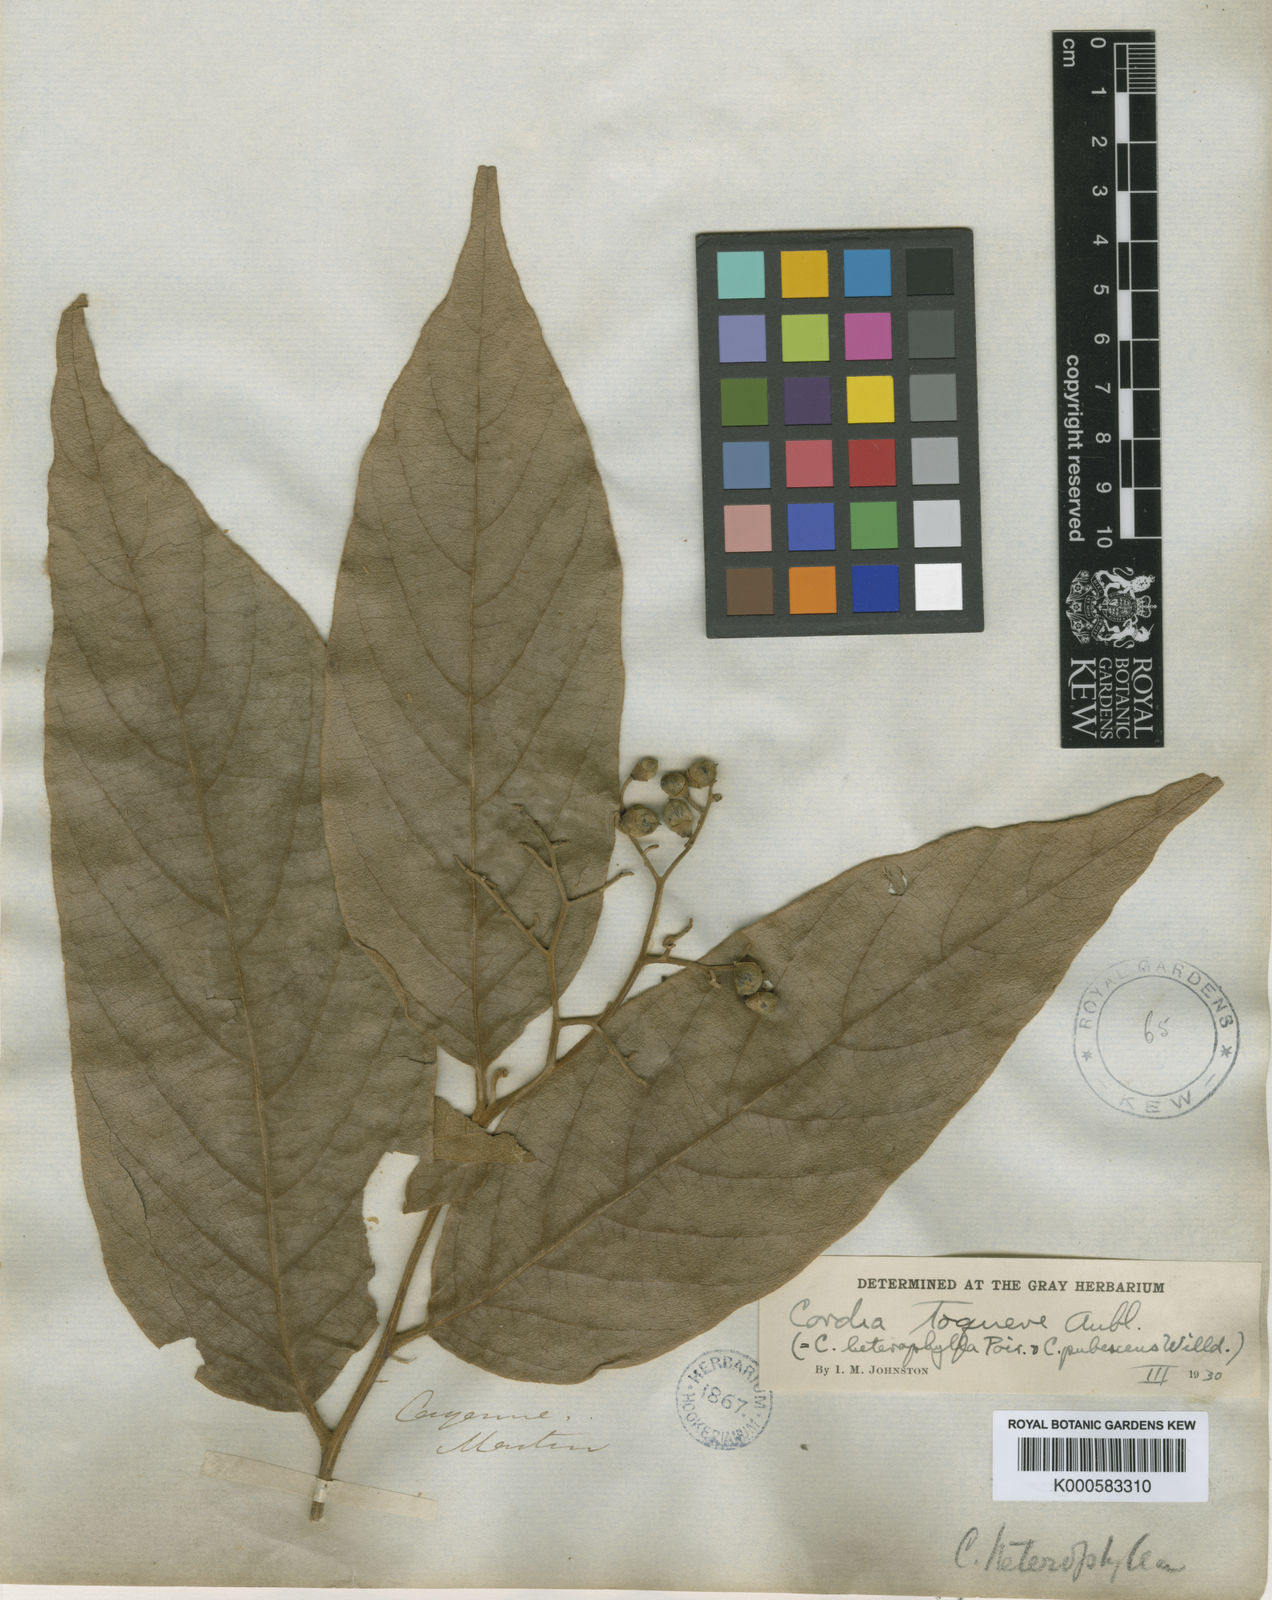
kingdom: Plantae
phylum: Tracheophyta
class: Magnoliopsida
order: Boraginales
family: Cordiaceae
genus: Cordia
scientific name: Cordia toqueve
